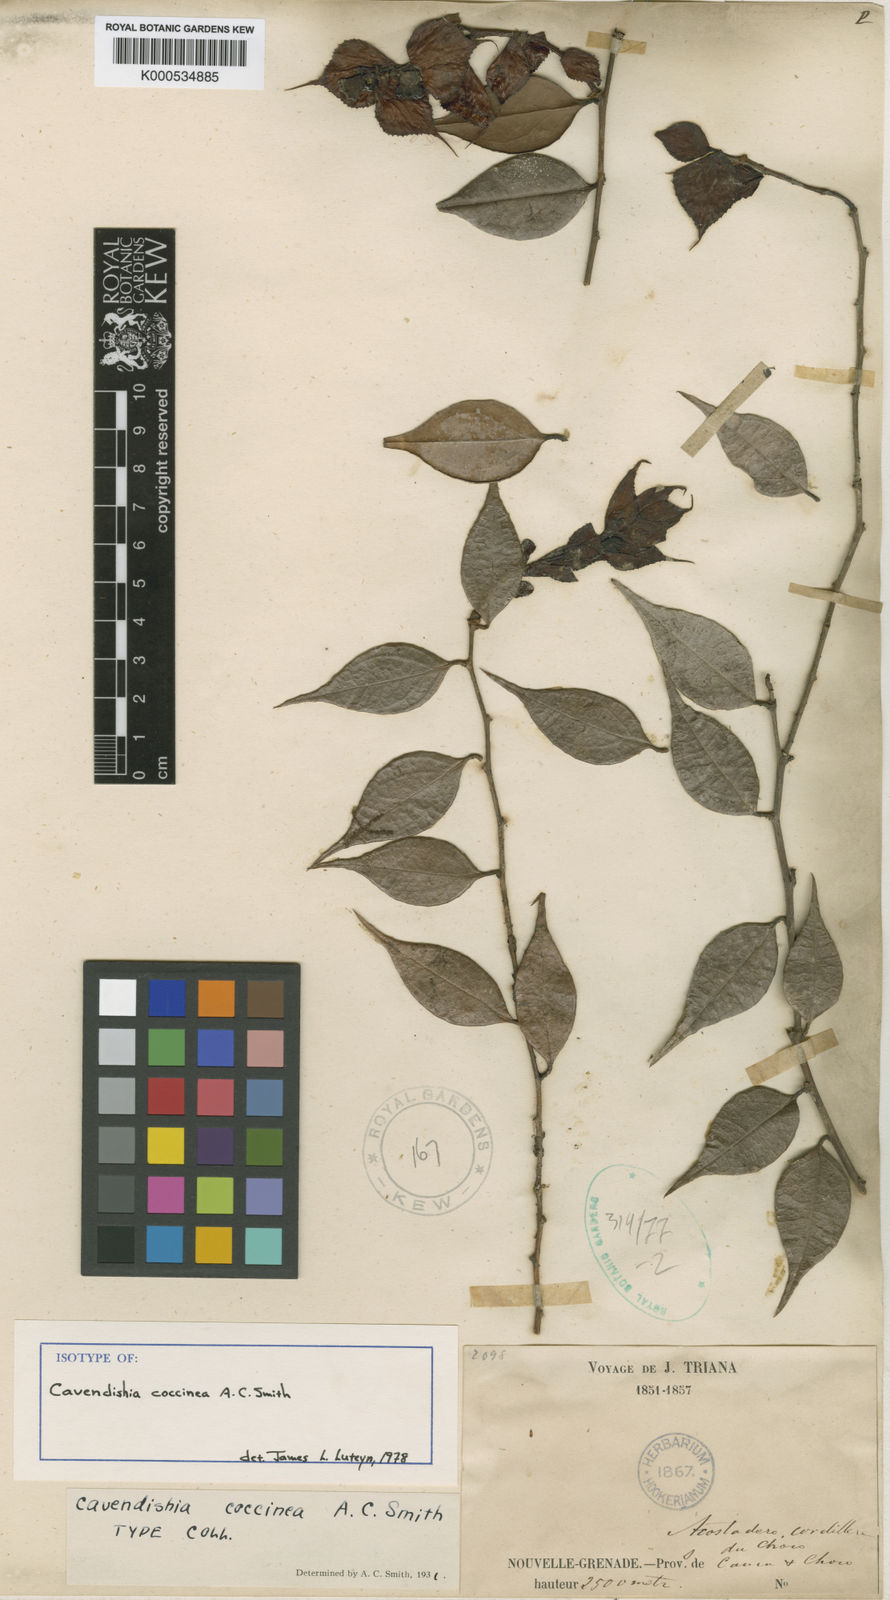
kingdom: Plantae
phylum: Tracheophyta
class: Magnoliopsida
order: Ericales
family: Ericaceae
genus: Cavendishia
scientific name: Cavendishia coccinea
